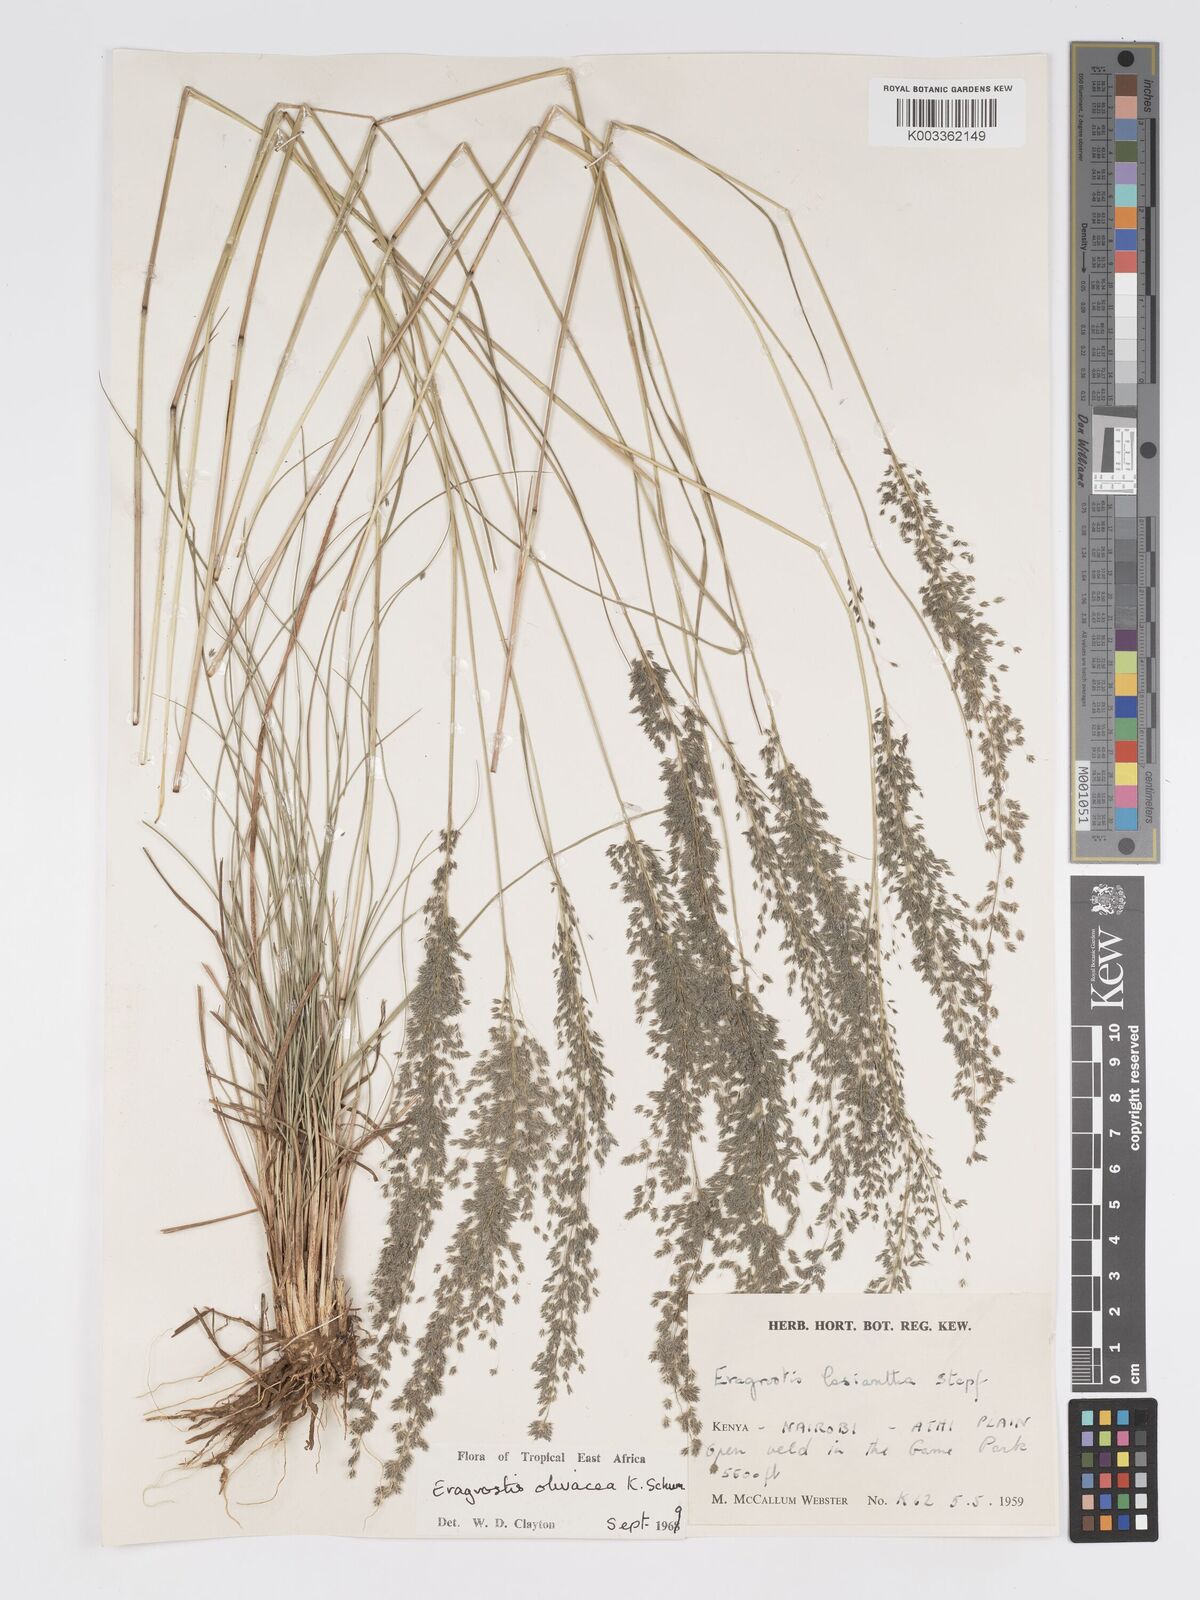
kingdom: Plantae
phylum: Tracheophyta
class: Liliopsida
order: Poales
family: Poaceae
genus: Eragrostis
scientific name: Eragrostis olivacea
